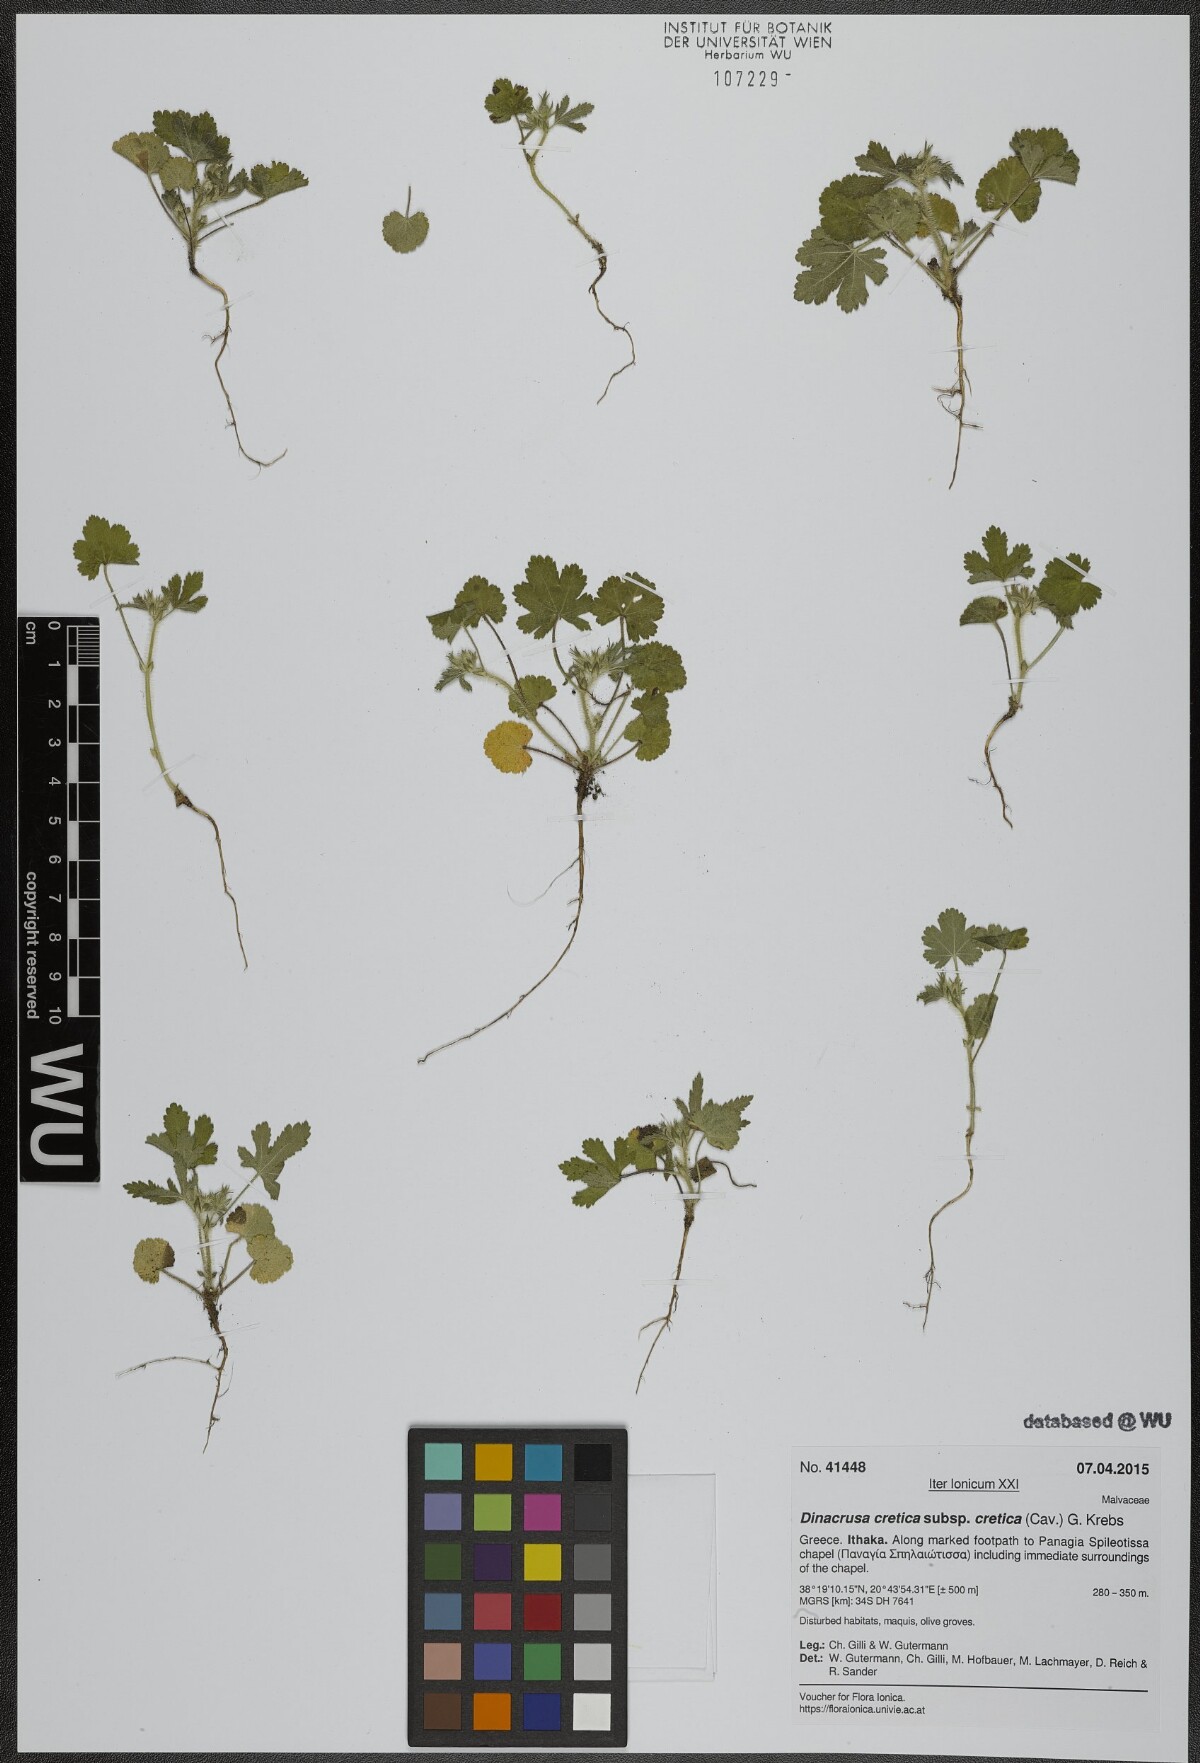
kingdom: Plantae
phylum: Tracheophyta
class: Magnoliopsida
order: Malvales
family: Malvaceae
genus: Malva
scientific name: Malva cretica
